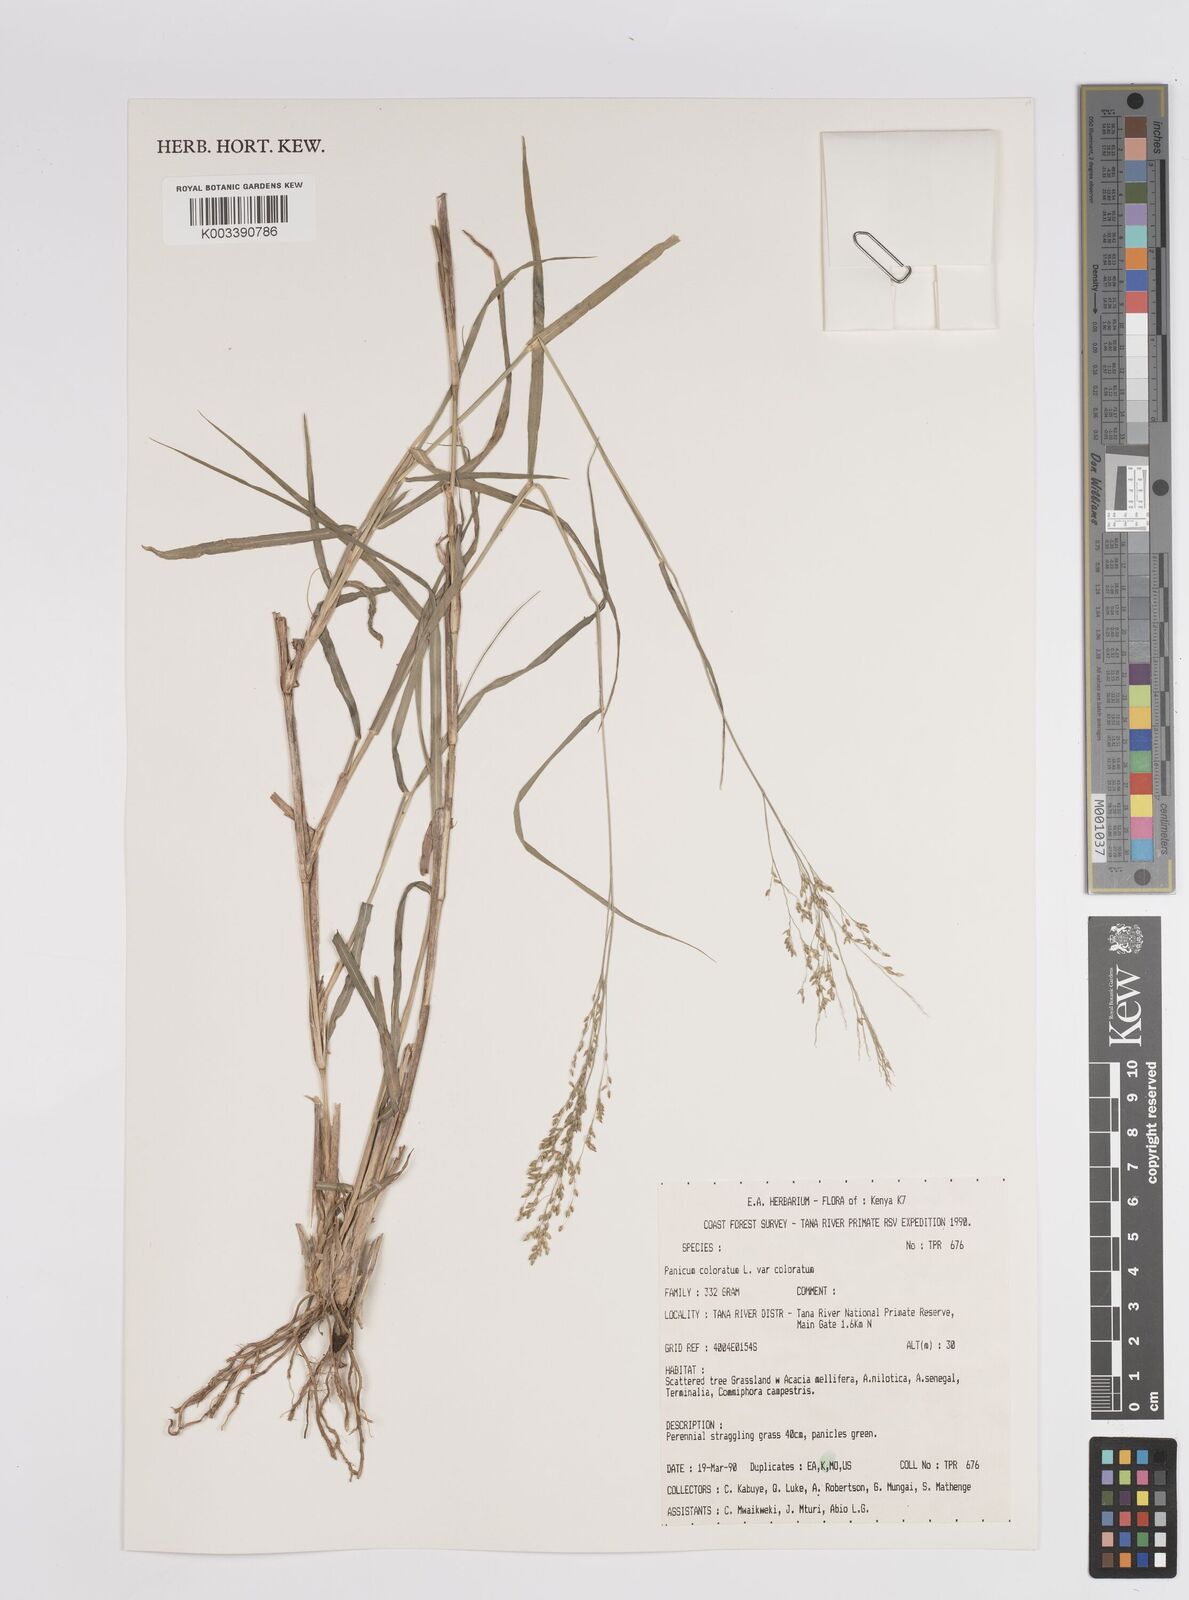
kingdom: Plantae
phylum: Tracheophyta
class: Liliopsida
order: Poales
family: Poaceae
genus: Panicum
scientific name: Panicum coloratum
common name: Kleingrass
